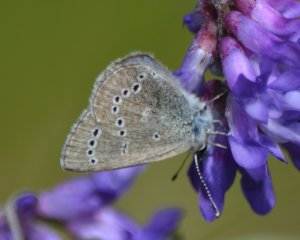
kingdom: Animalia
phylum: Arthropoda
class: Insecta
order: Lepidoptera
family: Lycaenidae
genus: Glaucopsyche
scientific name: Glaucopsyche lygdamus
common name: Silvery Blue
